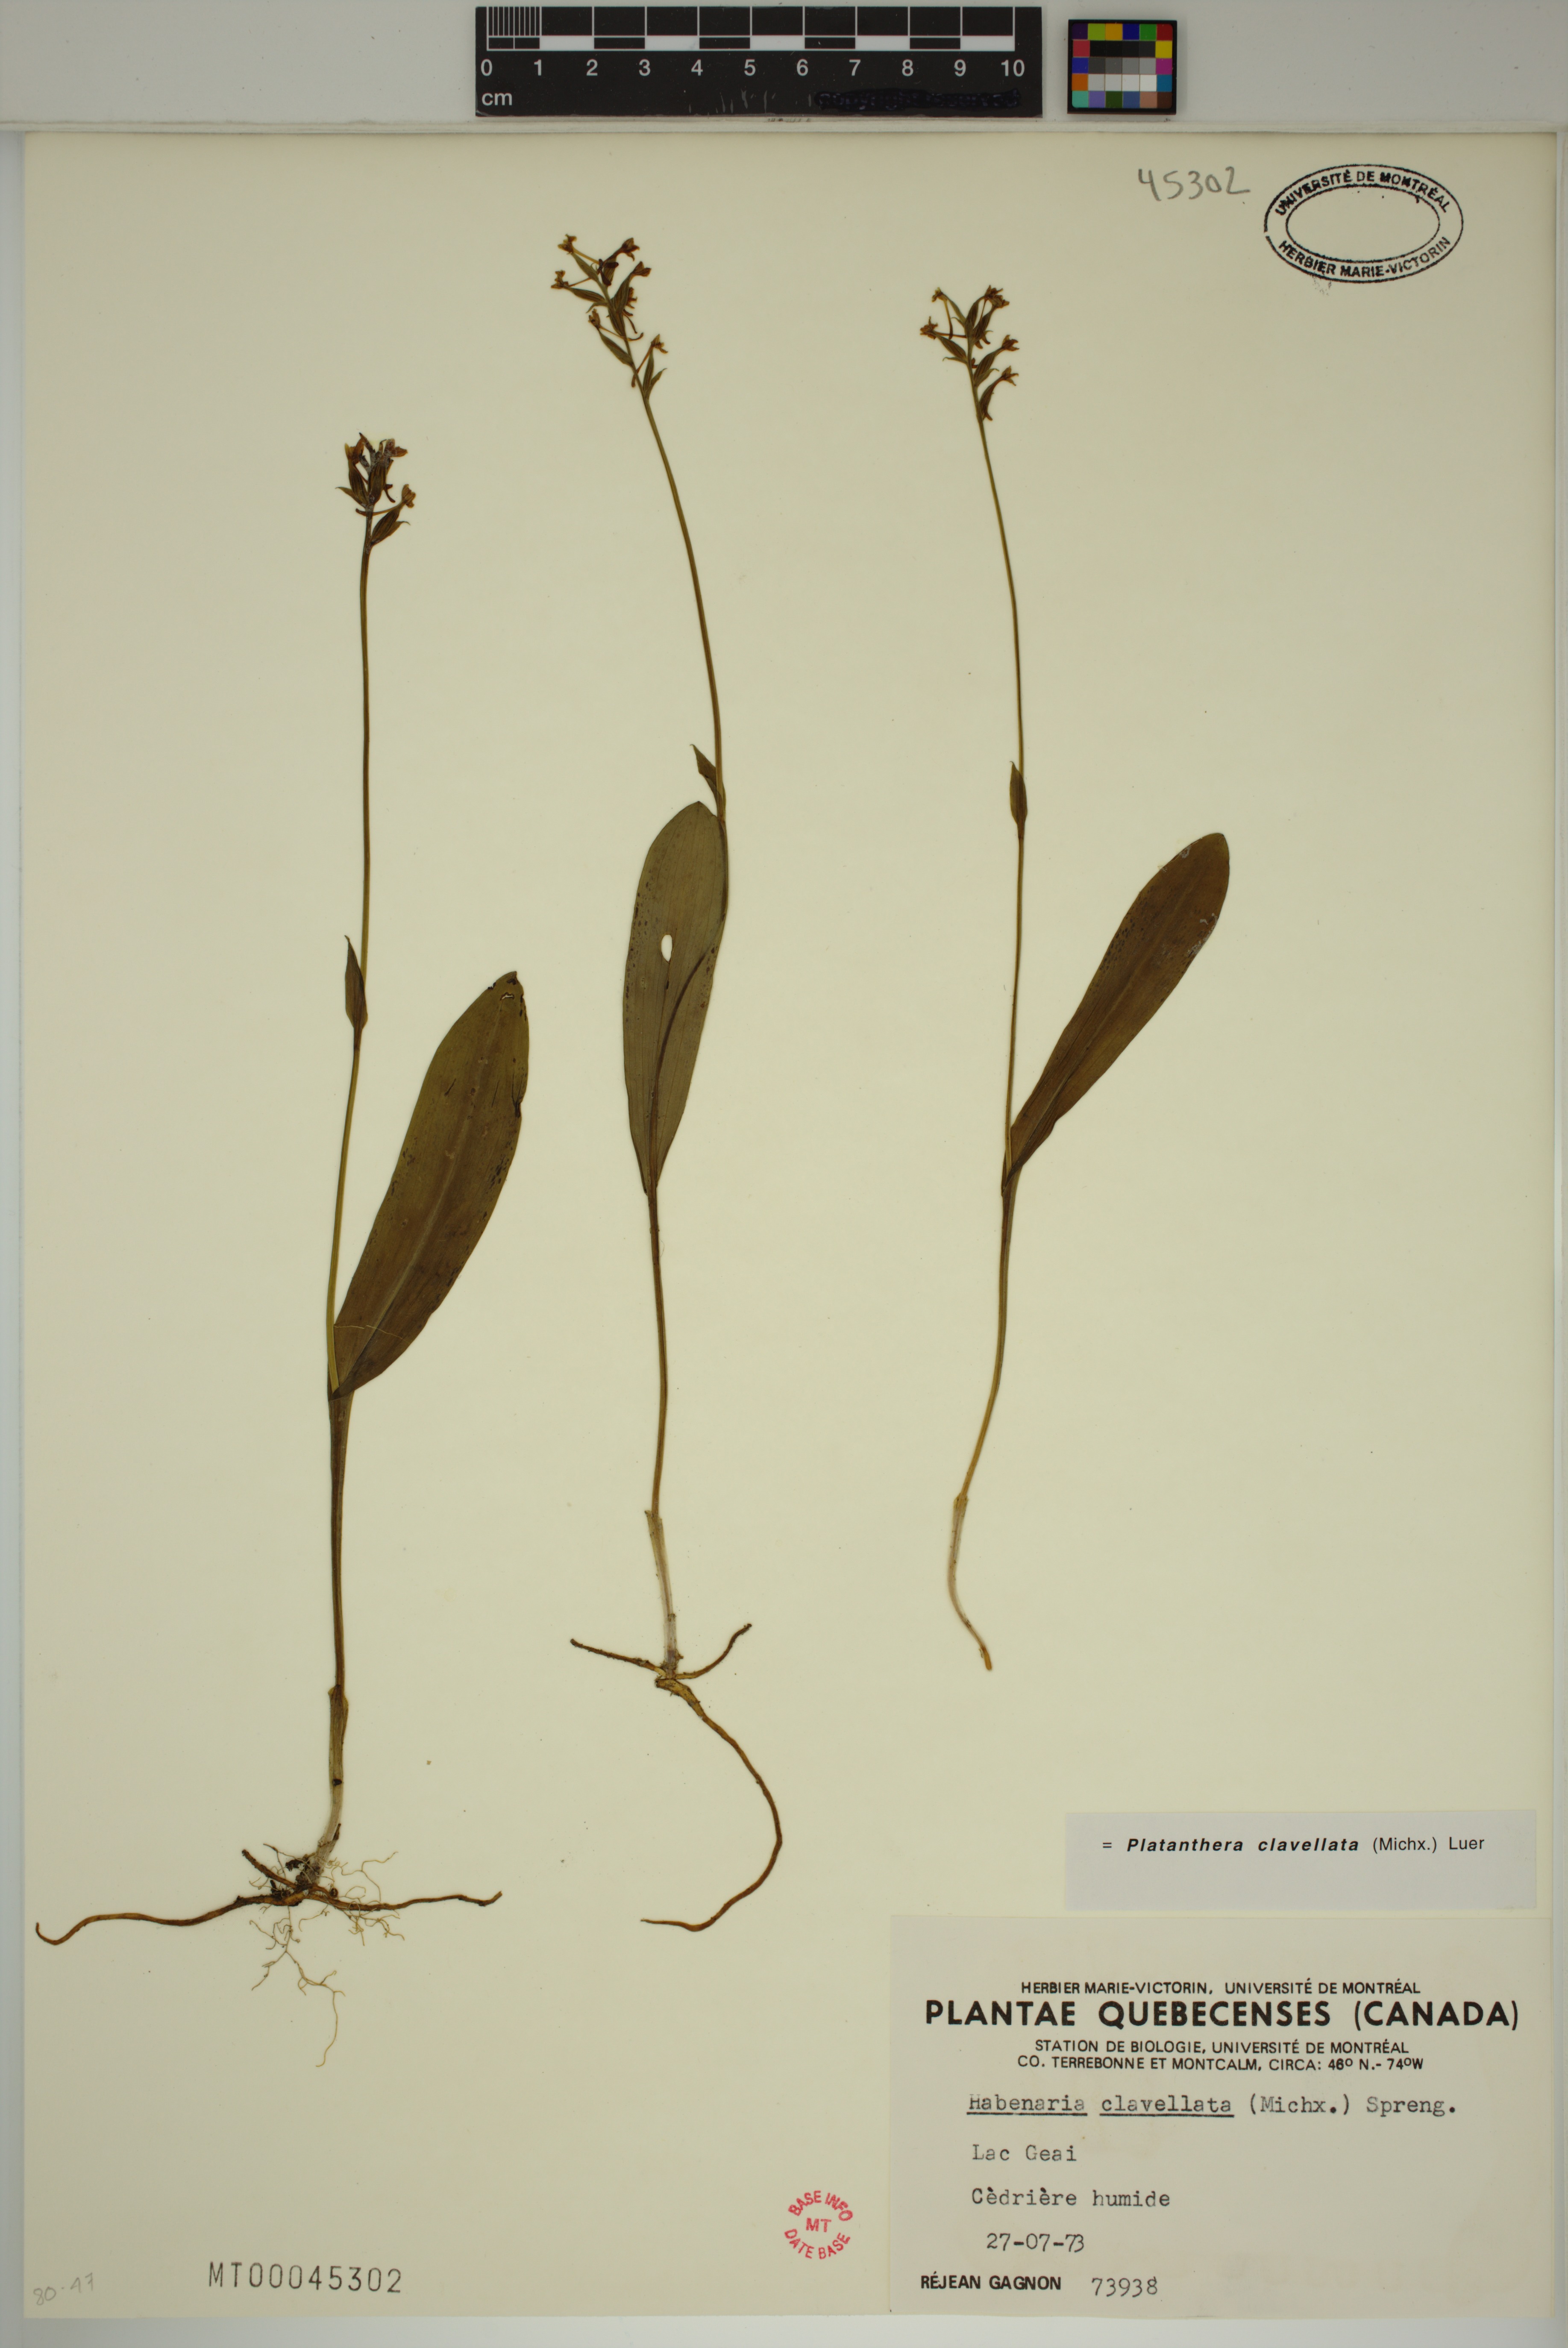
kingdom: Plantae
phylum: Tracheophyta
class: Liliopsida
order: Asparagales
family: Orchidaceae
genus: Platanthera
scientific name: Platanthera clavellata
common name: Club-spur orchid
